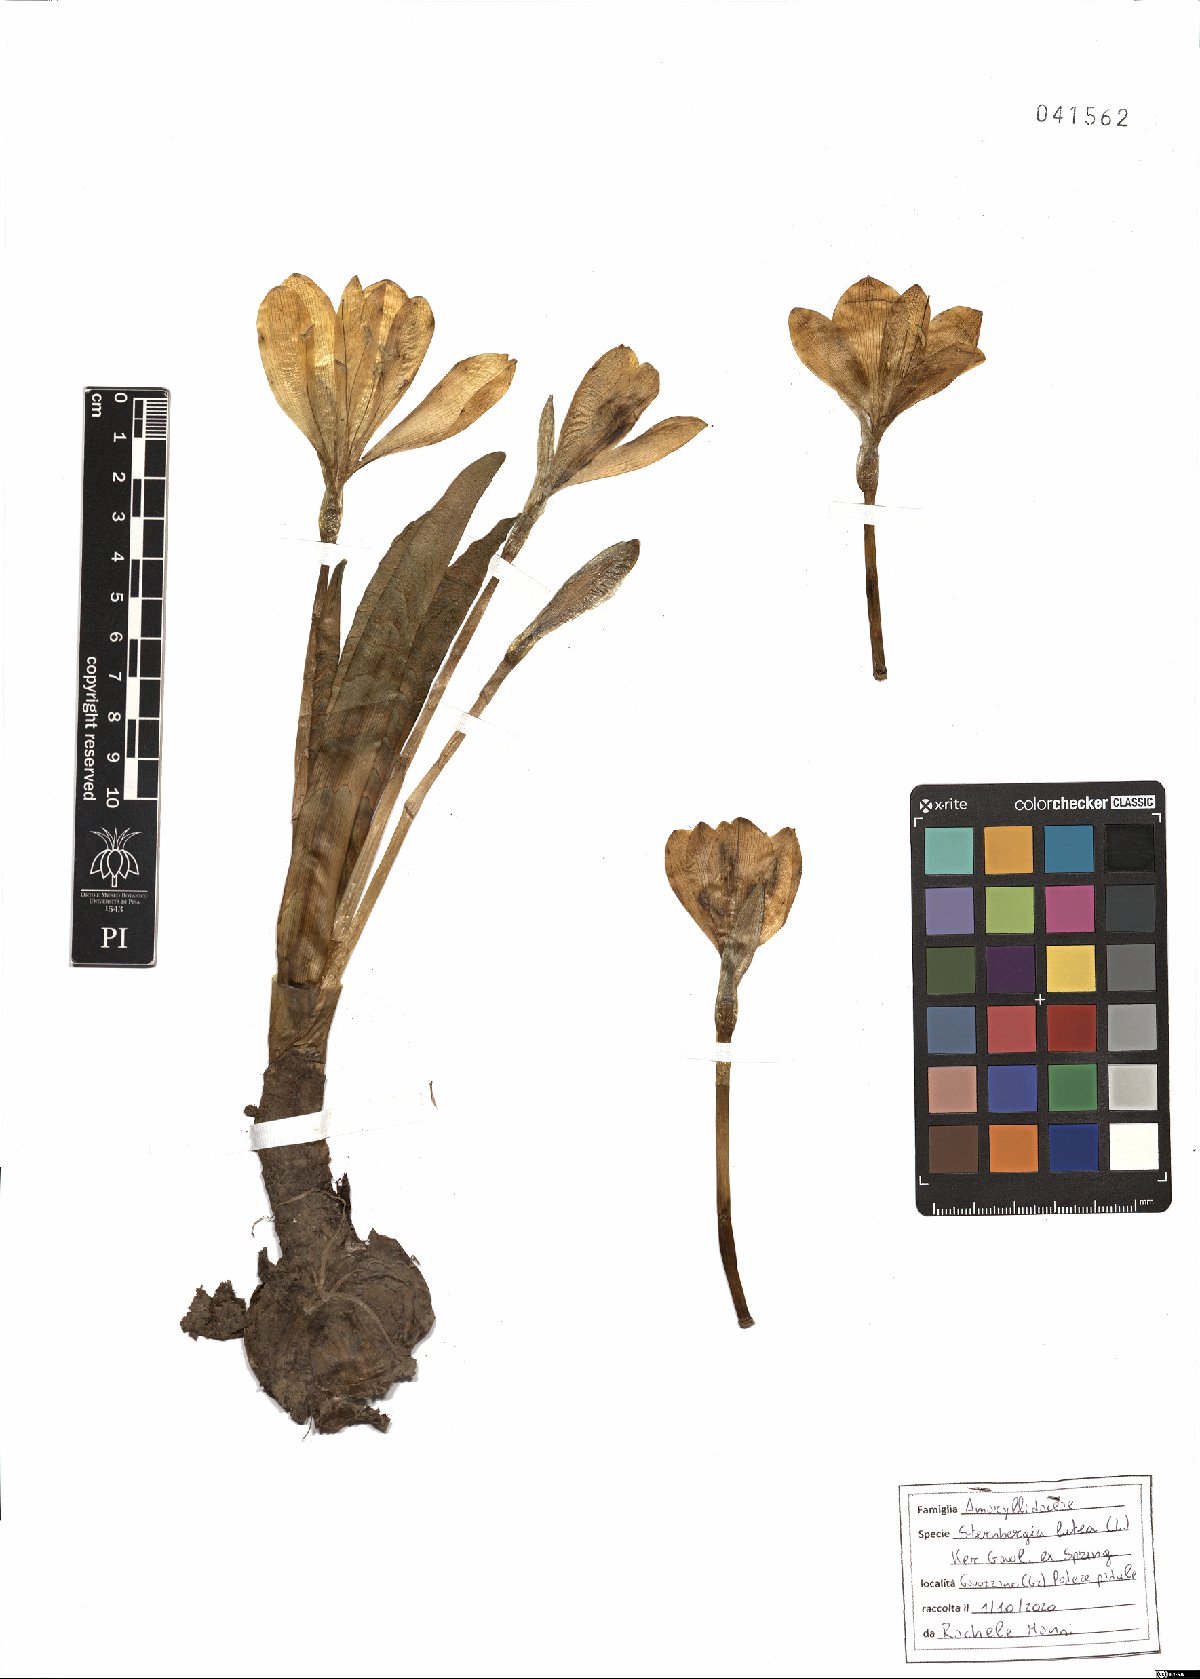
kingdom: Plantae
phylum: Tracheophyta
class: Liliopsida
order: Asparagales
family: Amaryllidaceae
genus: Sternbergia
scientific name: Sternbergia lutea
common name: Winter daffodil
